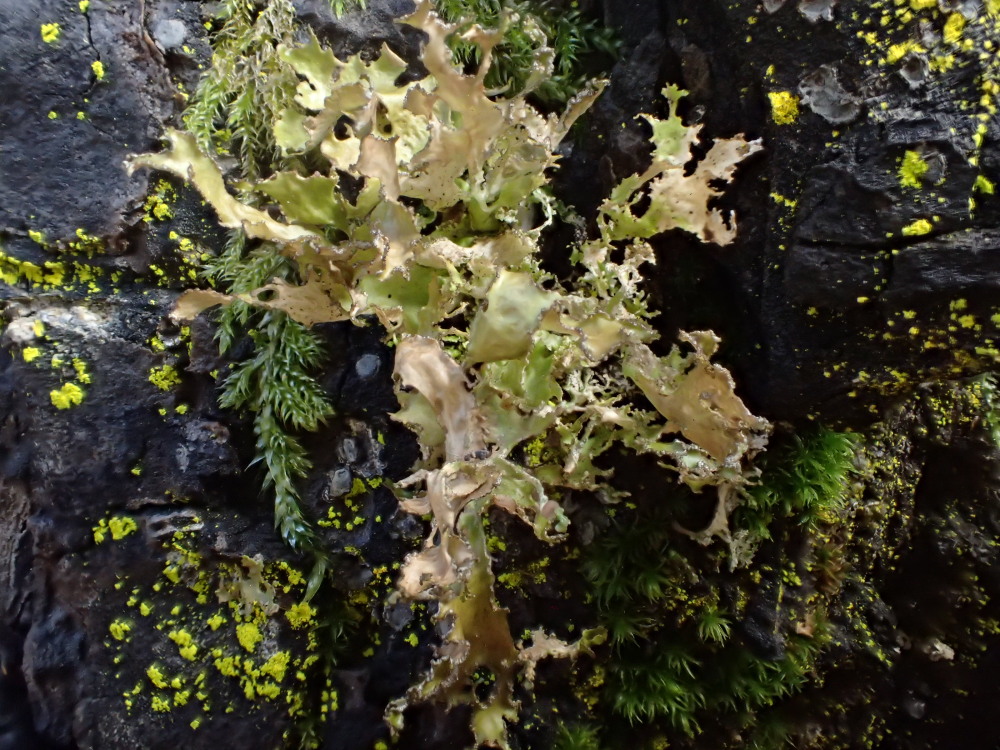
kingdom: Fungi
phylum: Ascomycota
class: Lecanoromycetes
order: Lecanorales
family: Parmeliaceae
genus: Nephromopsis
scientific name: Nephromopsis chlorophylla
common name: olivenbrun kruslav
